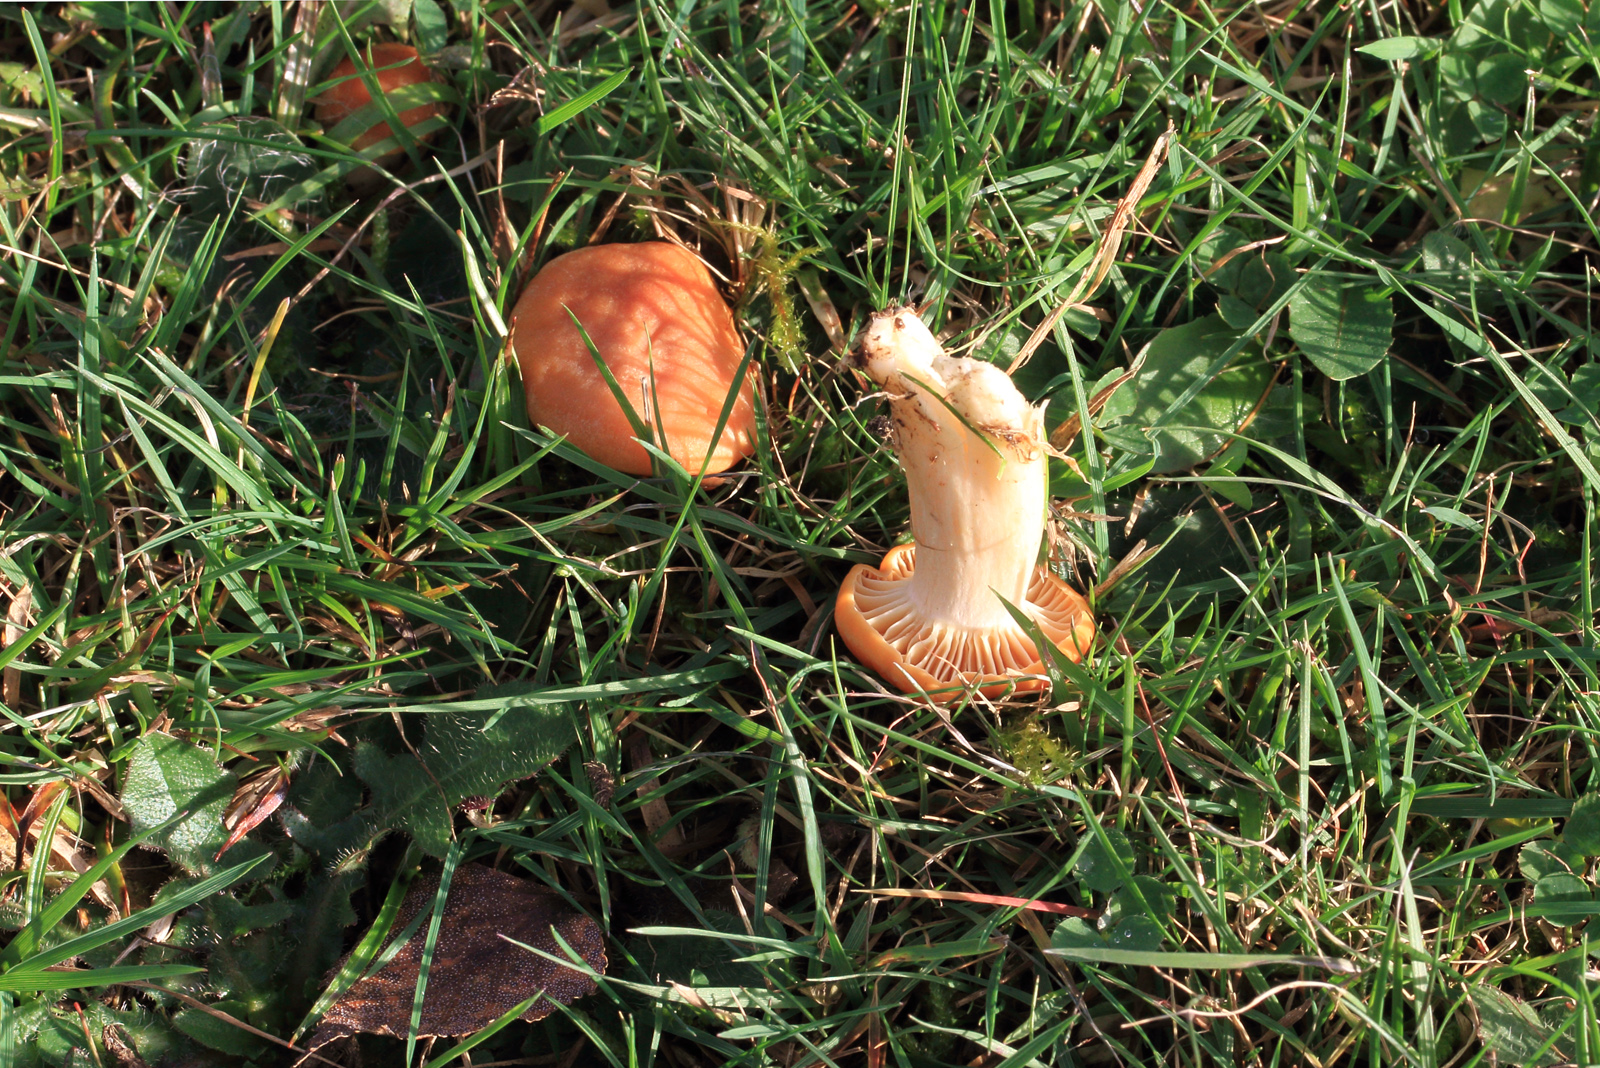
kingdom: Fungi
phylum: Basidiomycota
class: Agaricomycetes
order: Agaricales
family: Hygrophoraceae
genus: Cuphophyllus
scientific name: Cuphophyllus pratensis
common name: eng-vokshat
